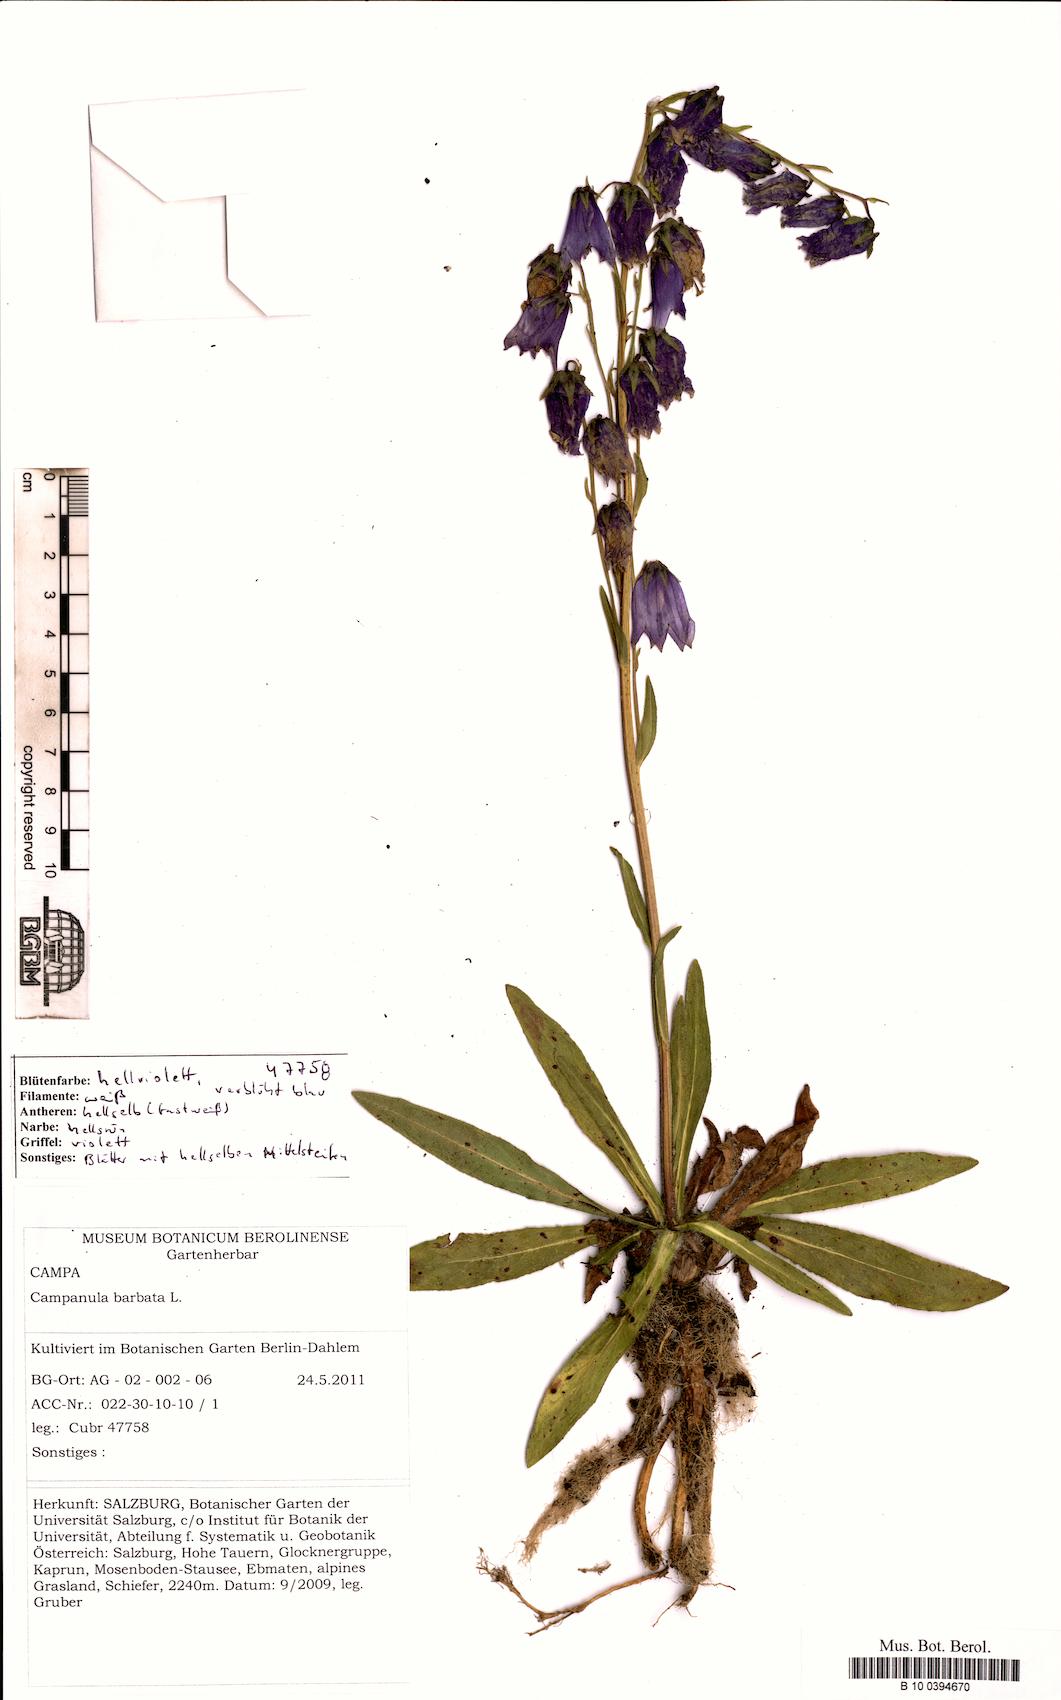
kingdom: Plantae
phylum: Tracheophyta
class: Magnoliopsida
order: Asterales
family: Campanulaceae
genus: Campanula
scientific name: Campanula barbata
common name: Bearded bellflower
